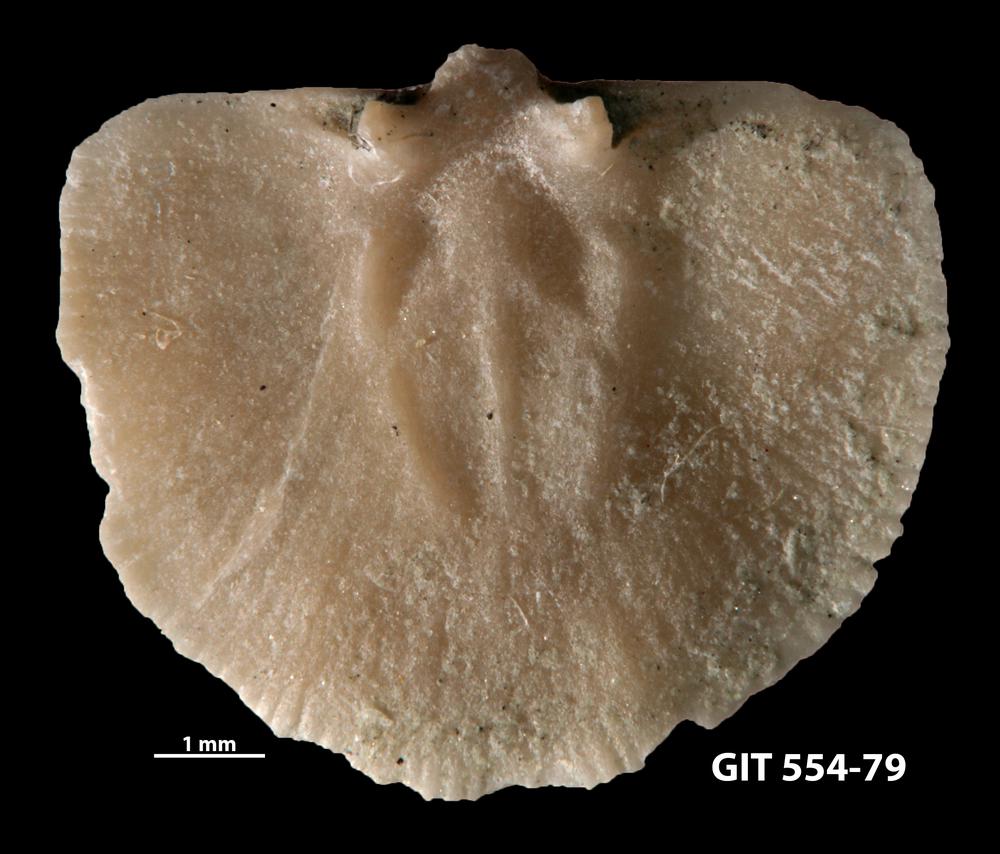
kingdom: Animalia
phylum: Brachiopoda
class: Rhynchonellata
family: Dalmanellidae
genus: Visbyella
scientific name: Visbyella pygmae
